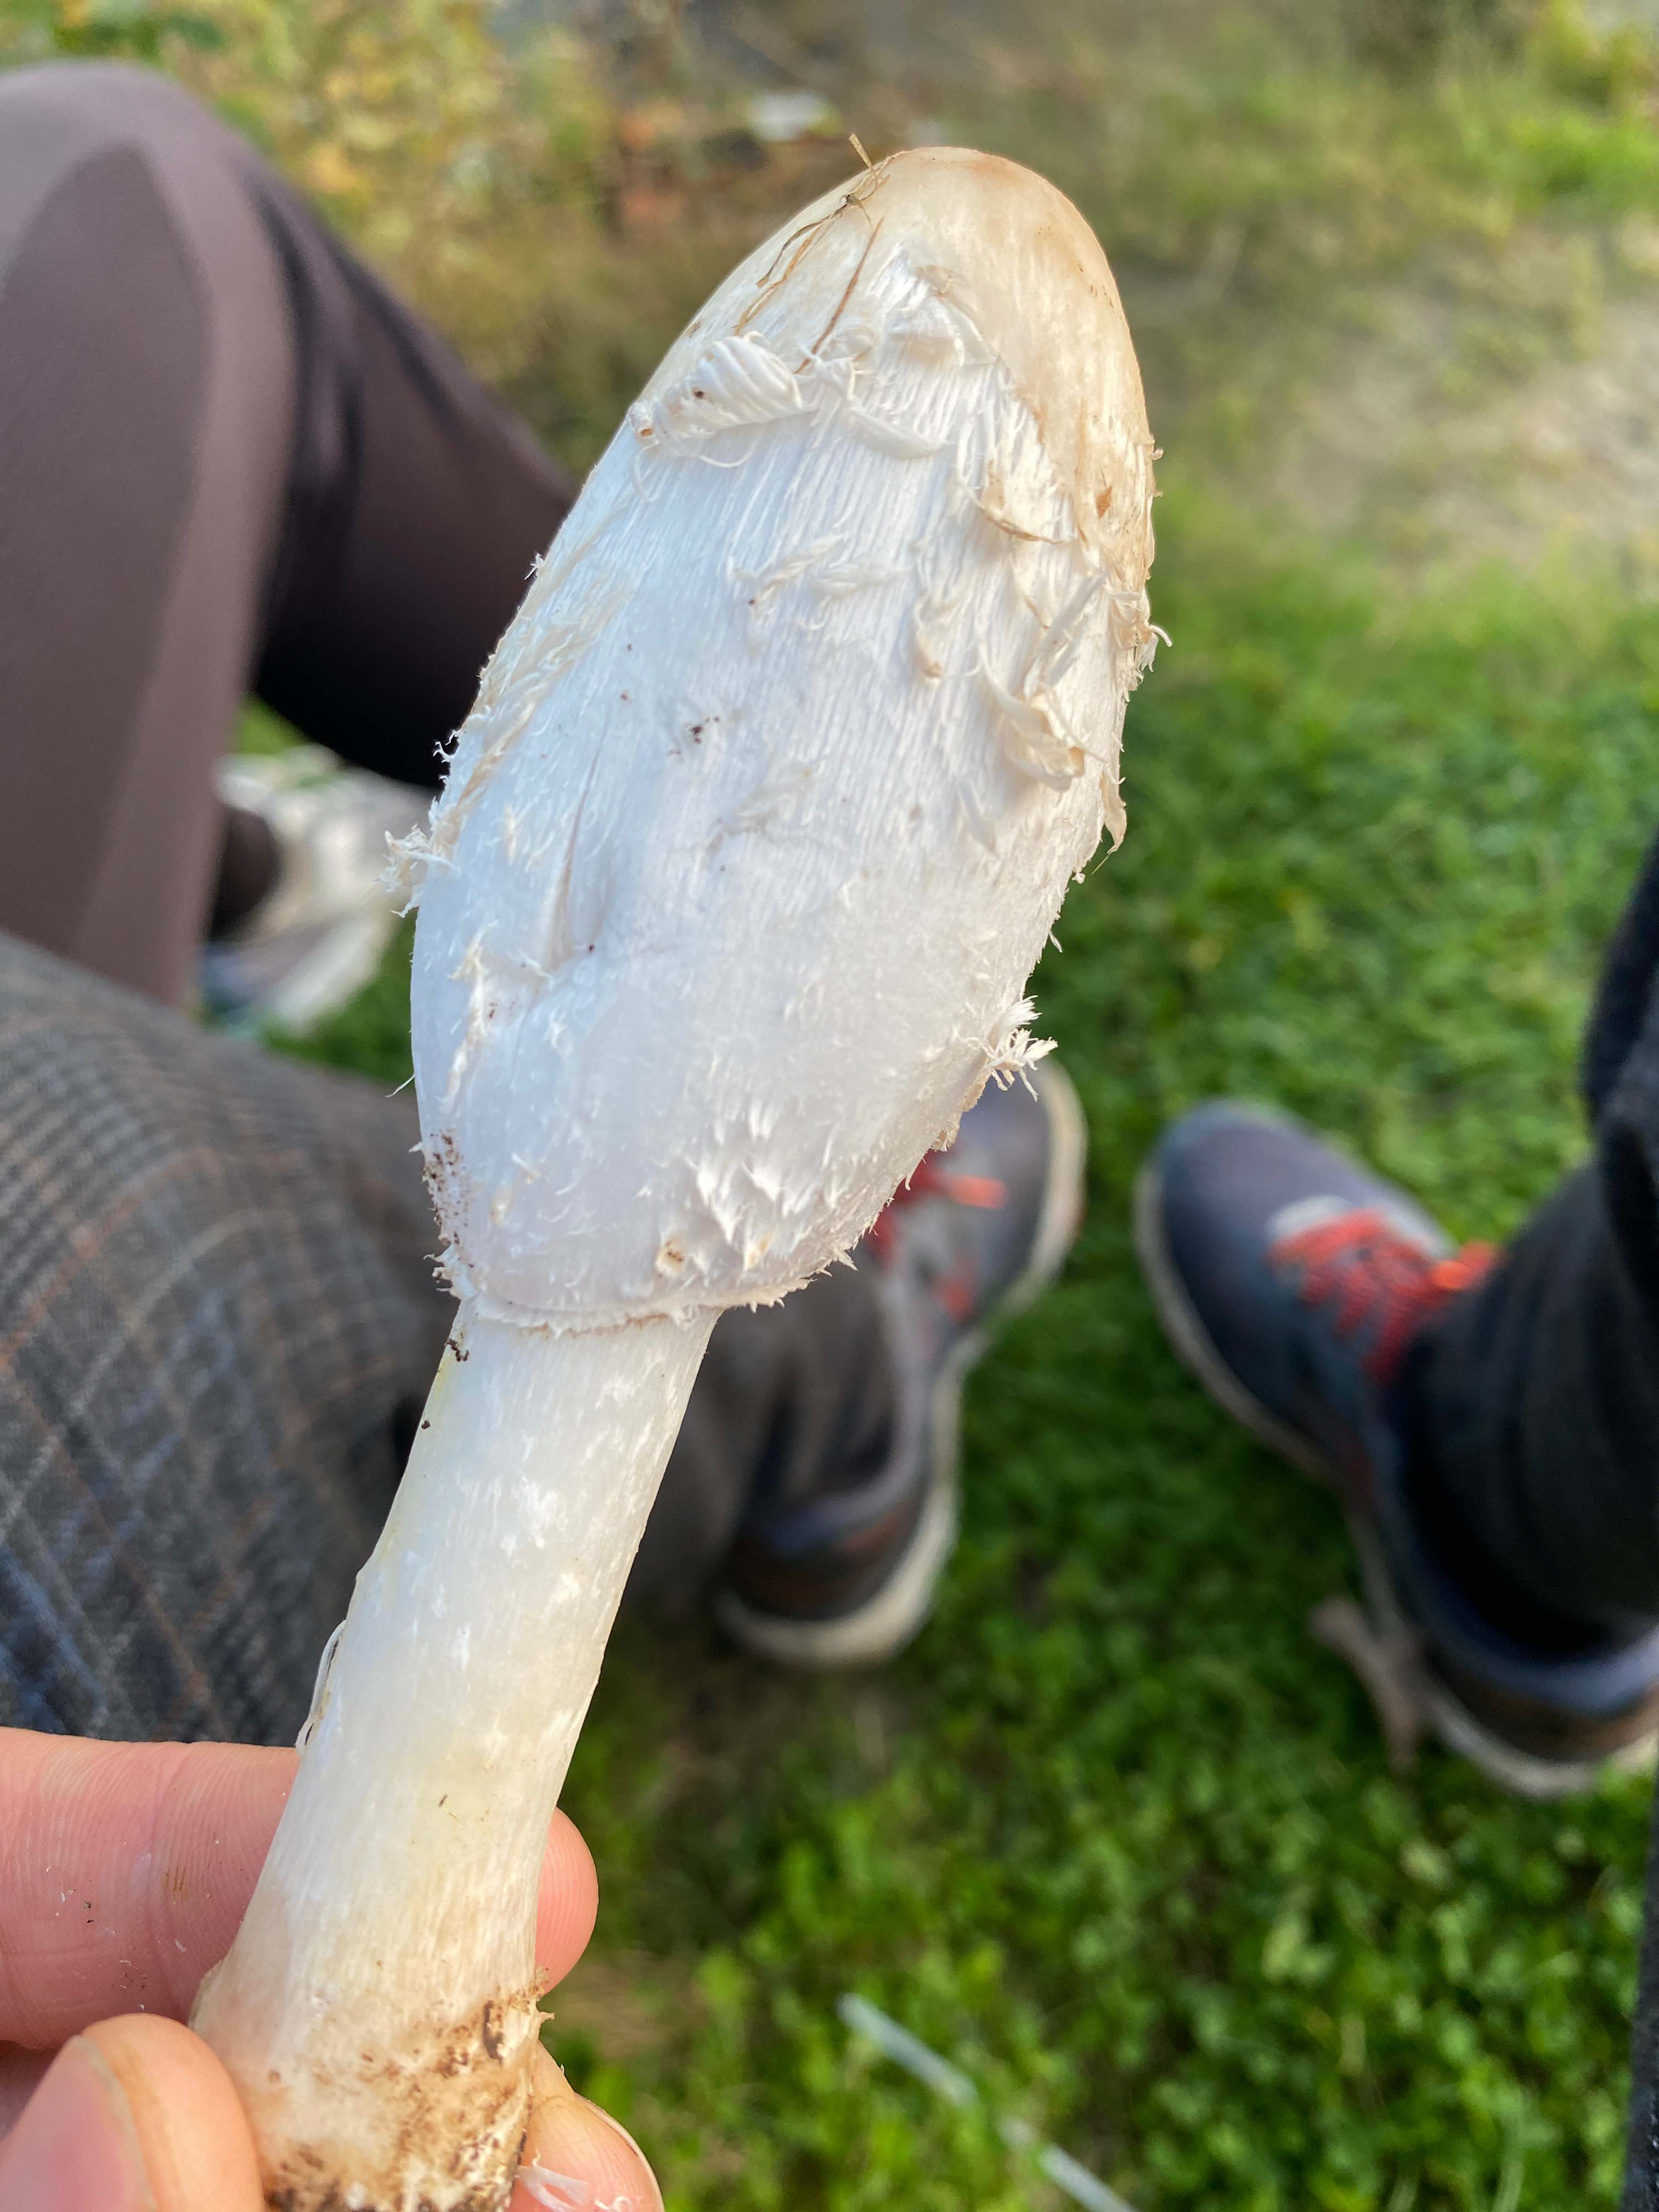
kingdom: Fungi
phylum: Basidiomycota
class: Agaricomycetes
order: Agaricales
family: Agaricaceae
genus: Coprinus
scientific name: Coprinus comatus
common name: stor parykhat
